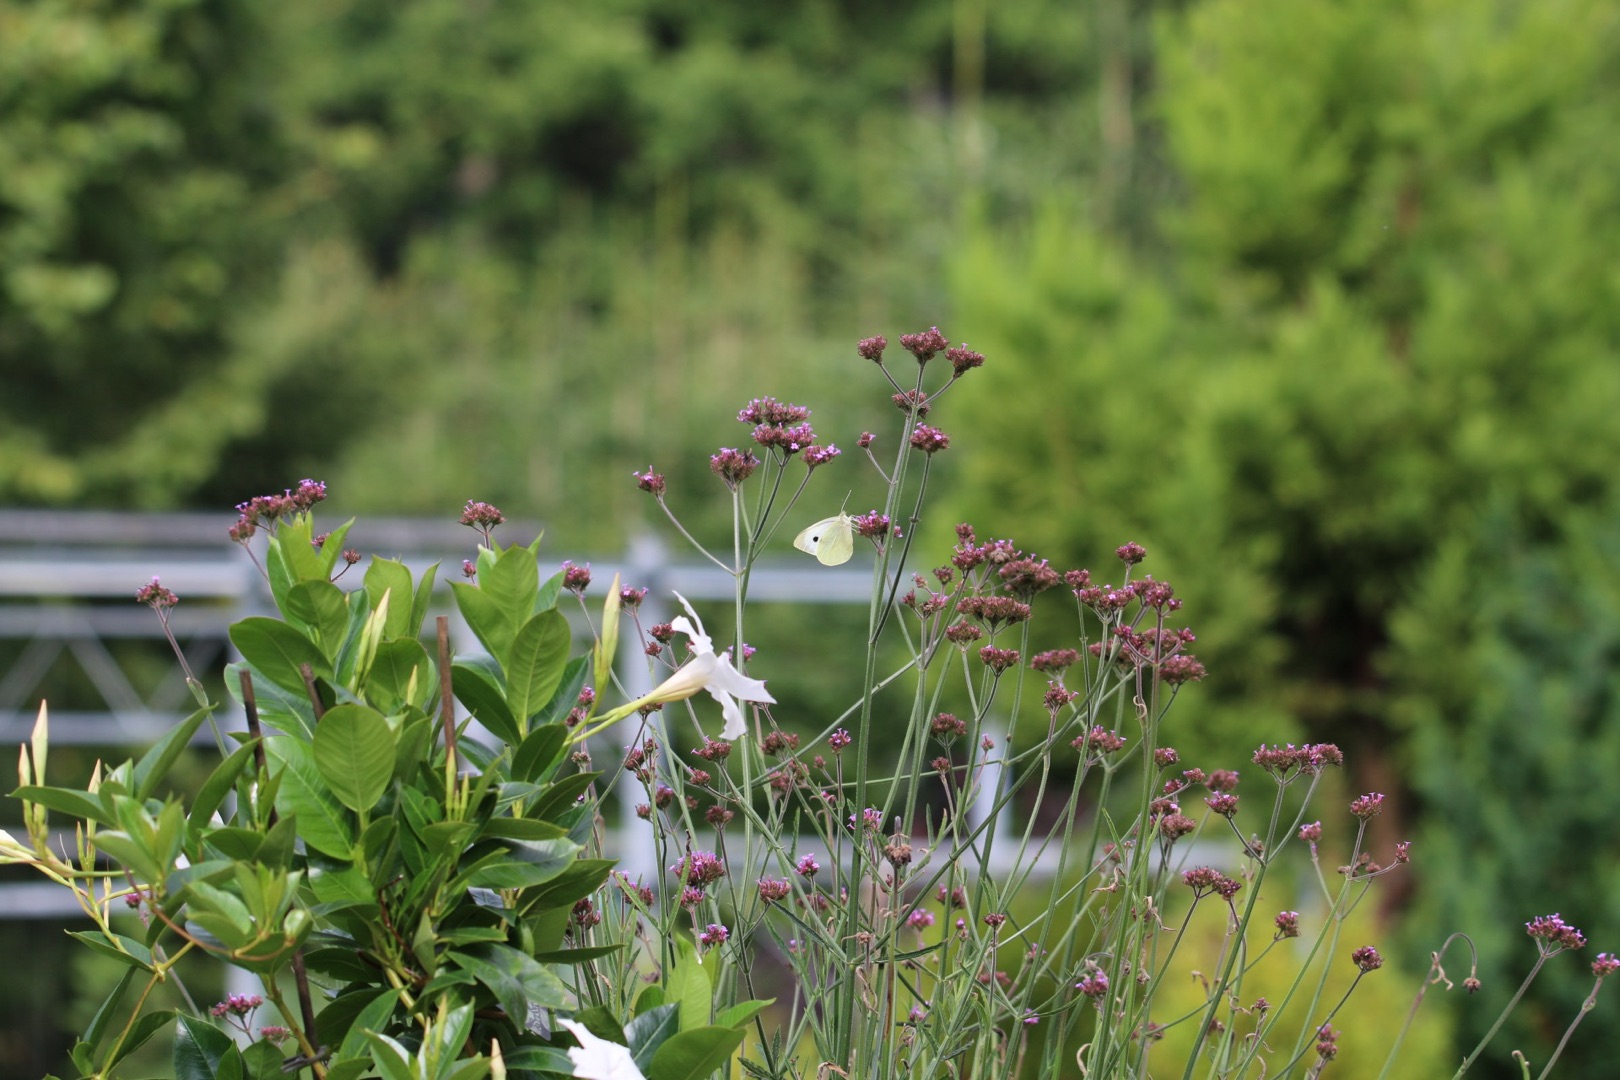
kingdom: Animalia
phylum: Arthropoda
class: Insecta
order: Lepidoptera
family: Pieridae
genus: Pieris
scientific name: Pieris brassicae
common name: Stor kålsommerfugl
